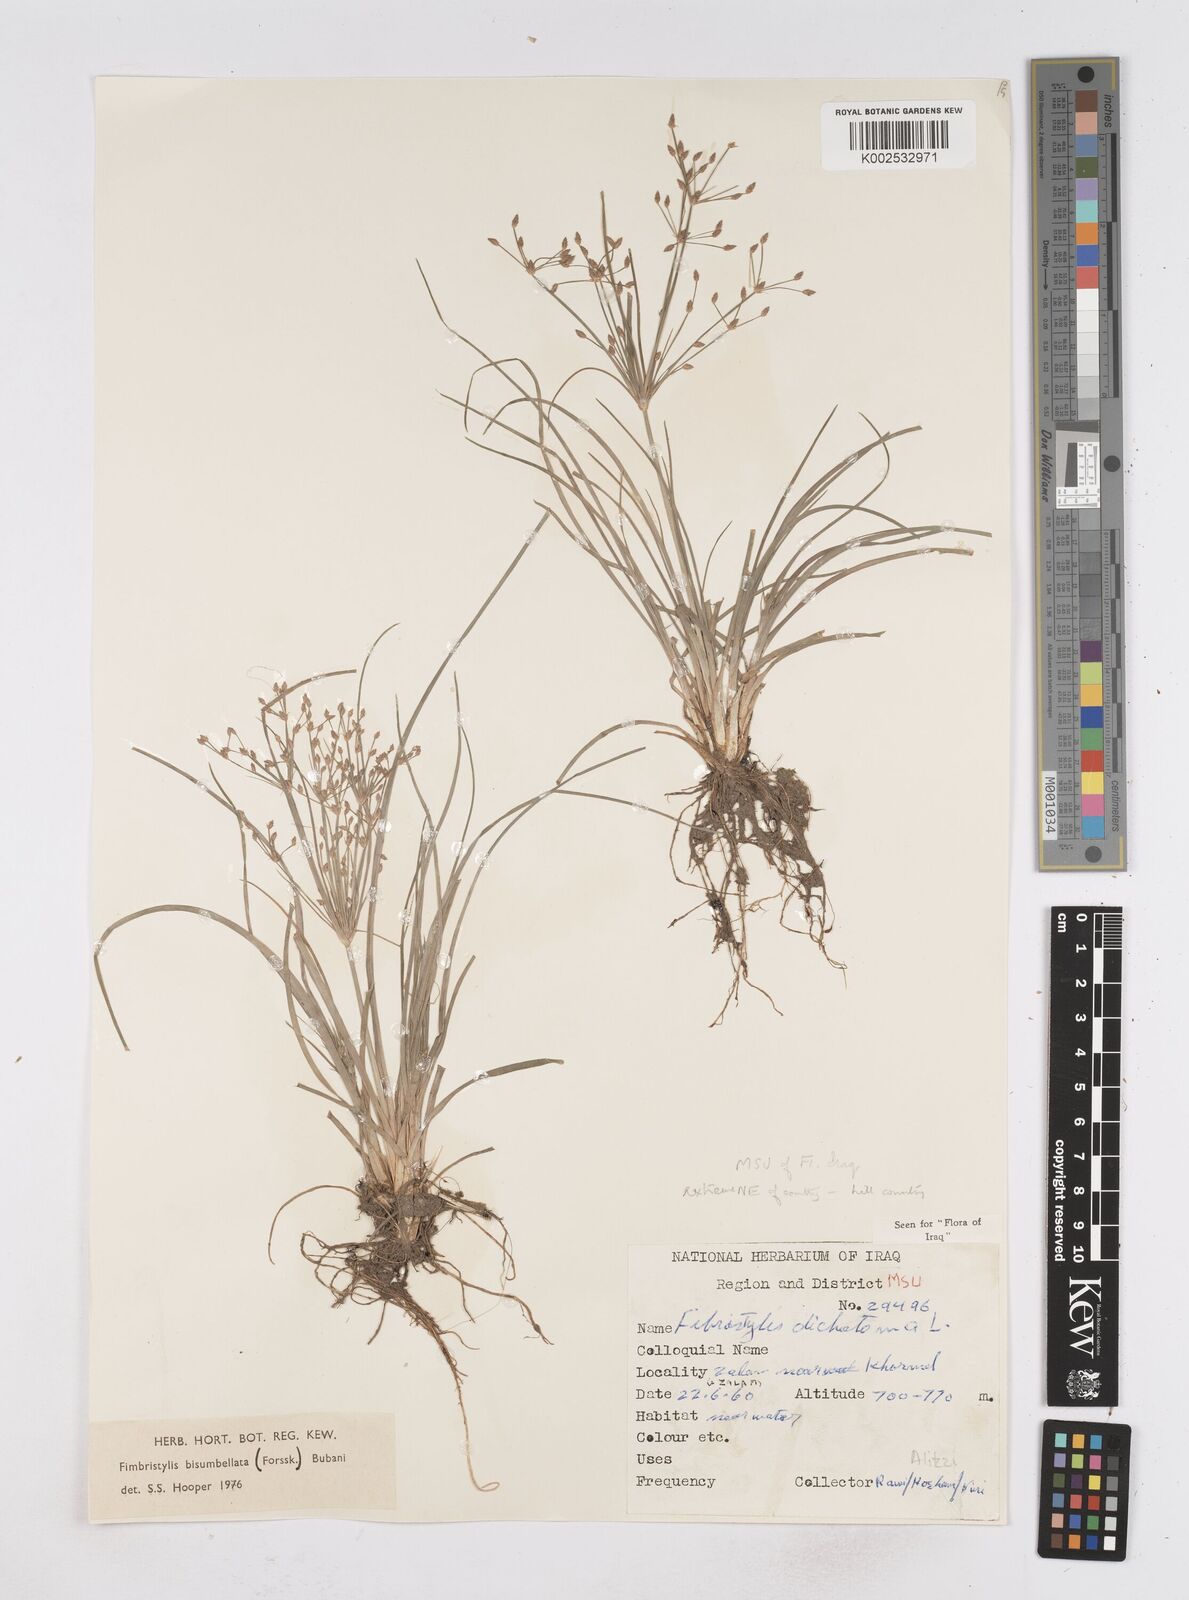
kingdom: Plantae
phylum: Tracheophyta
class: Liliopsida
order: Poales
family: Cyperaceae
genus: Fimbristylis
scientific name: Fimbristylis bisumbellata
